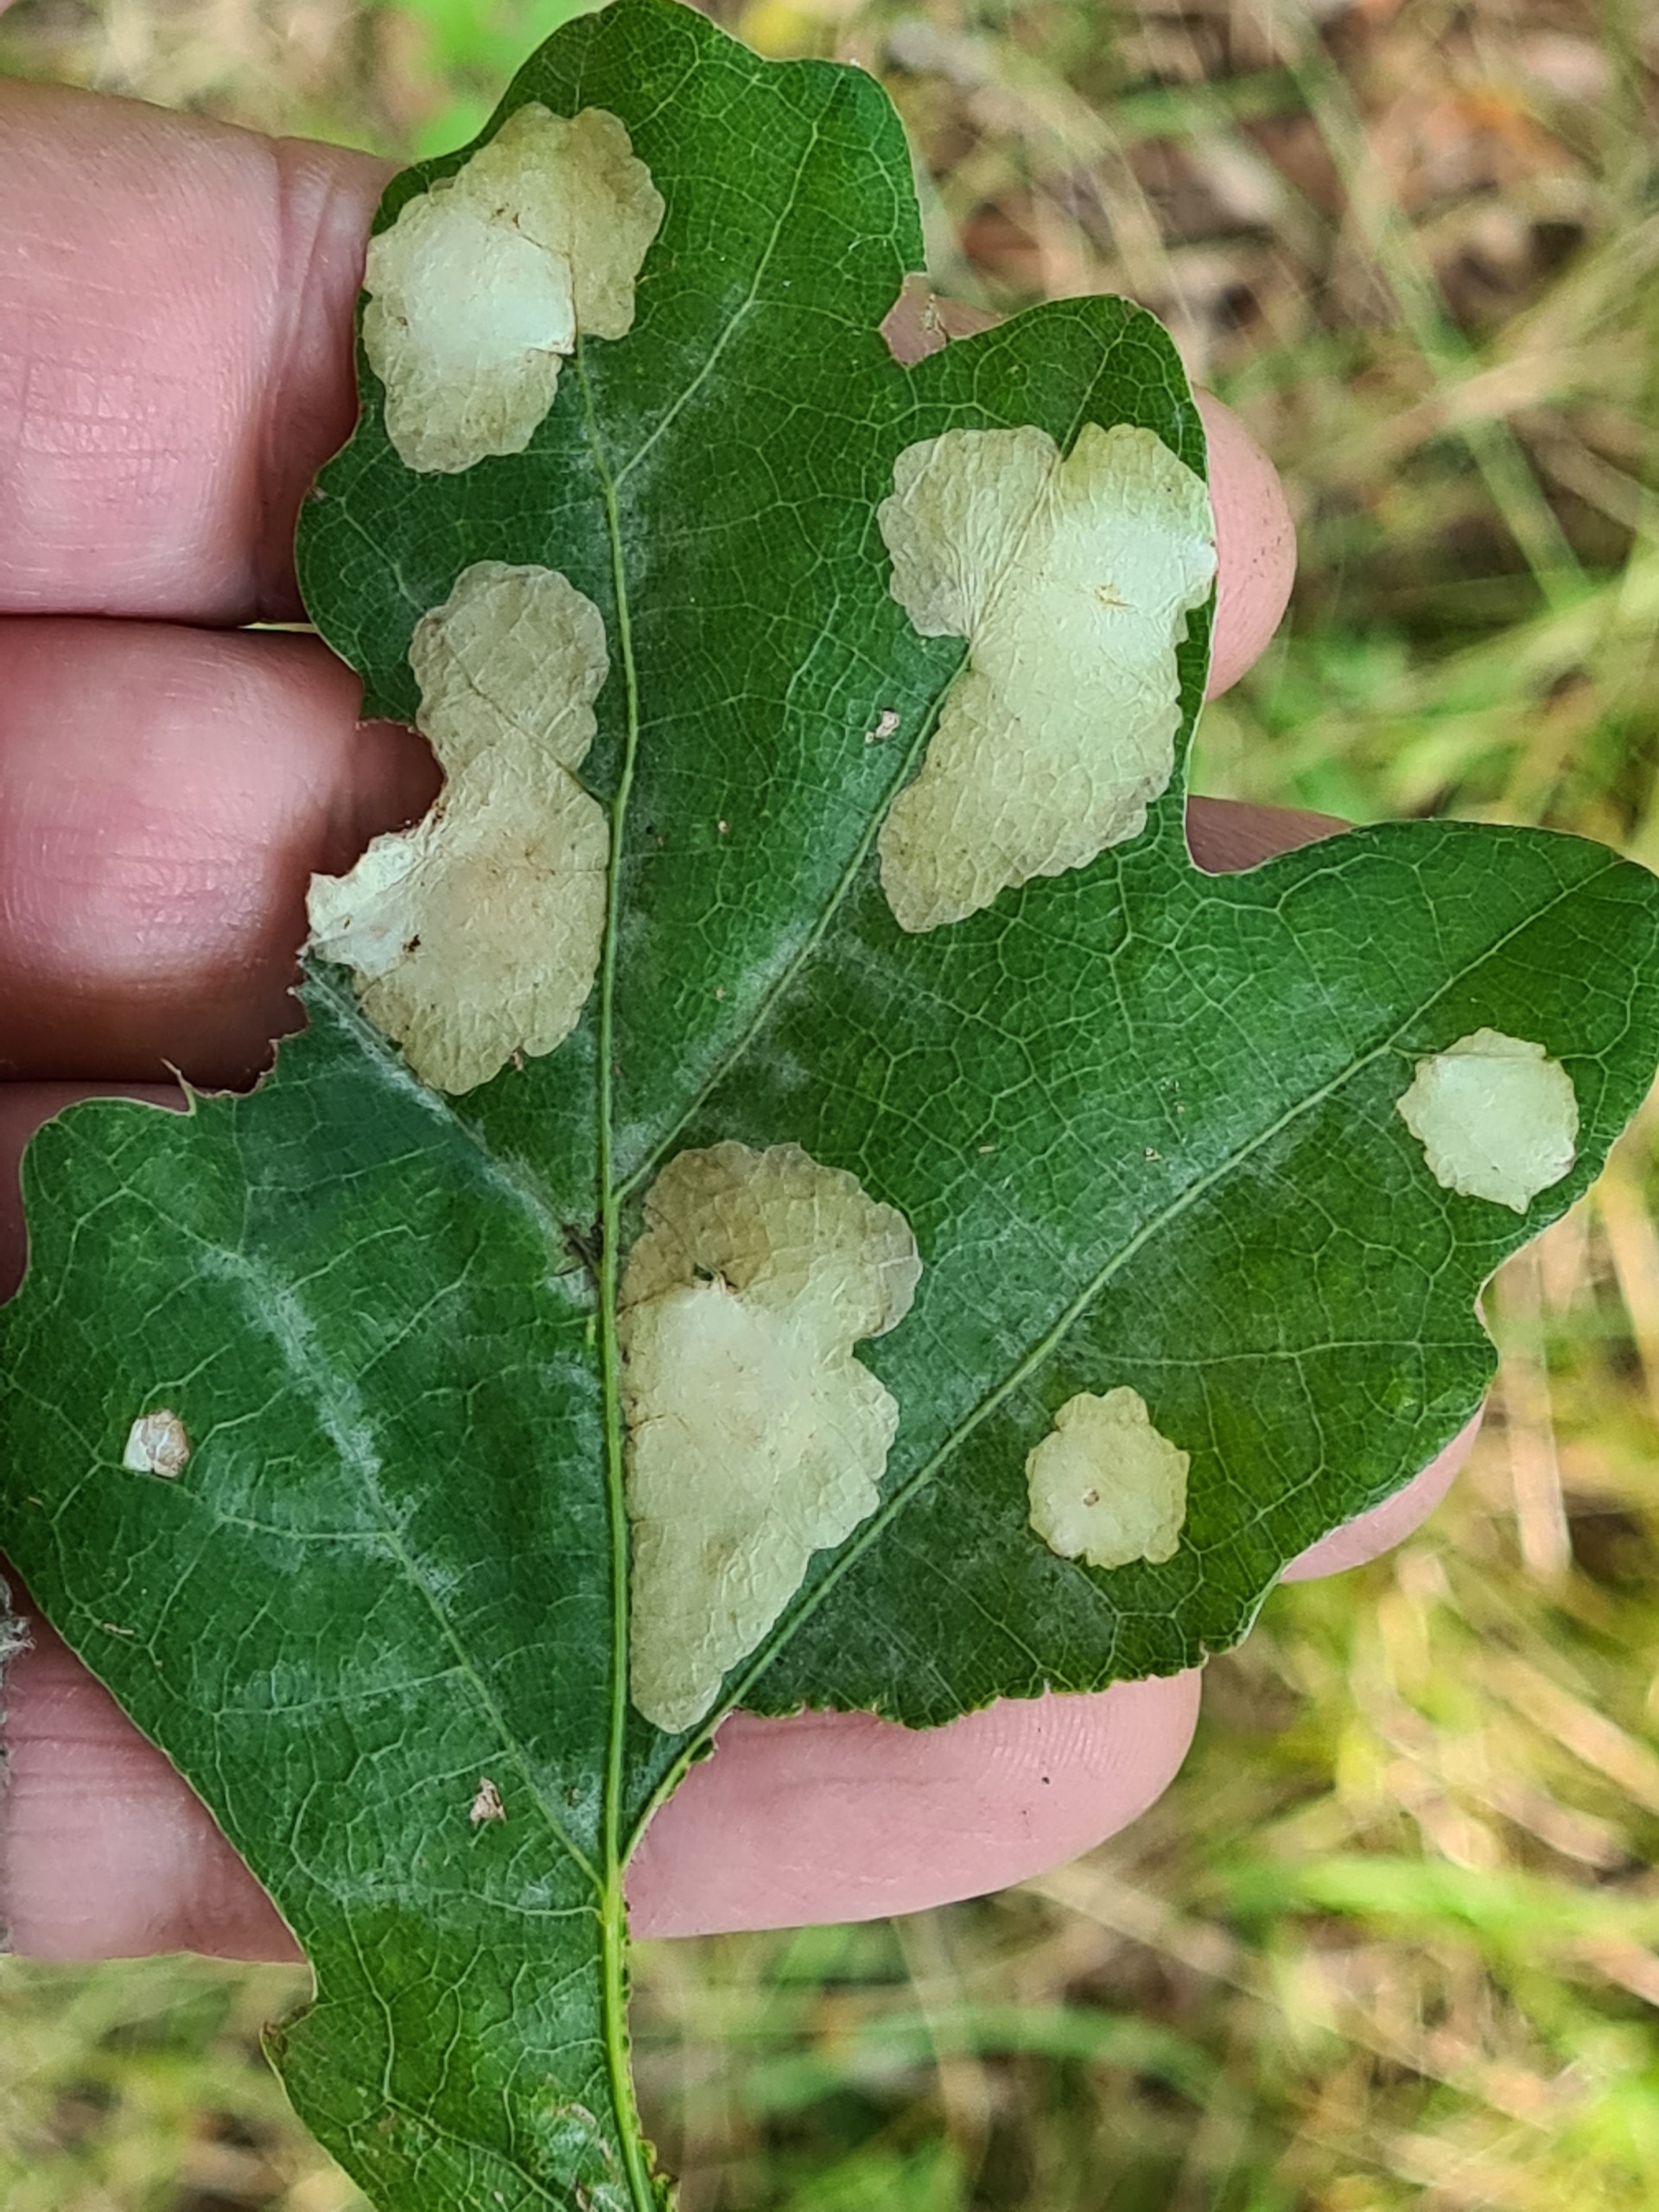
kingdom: Animalia
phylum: Arthropoda
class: Insecta
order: Lepidoptera
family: Tischeriidae
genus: Tischeria
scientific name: Tischeria ekebladella
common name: Egepandeduskmøl
